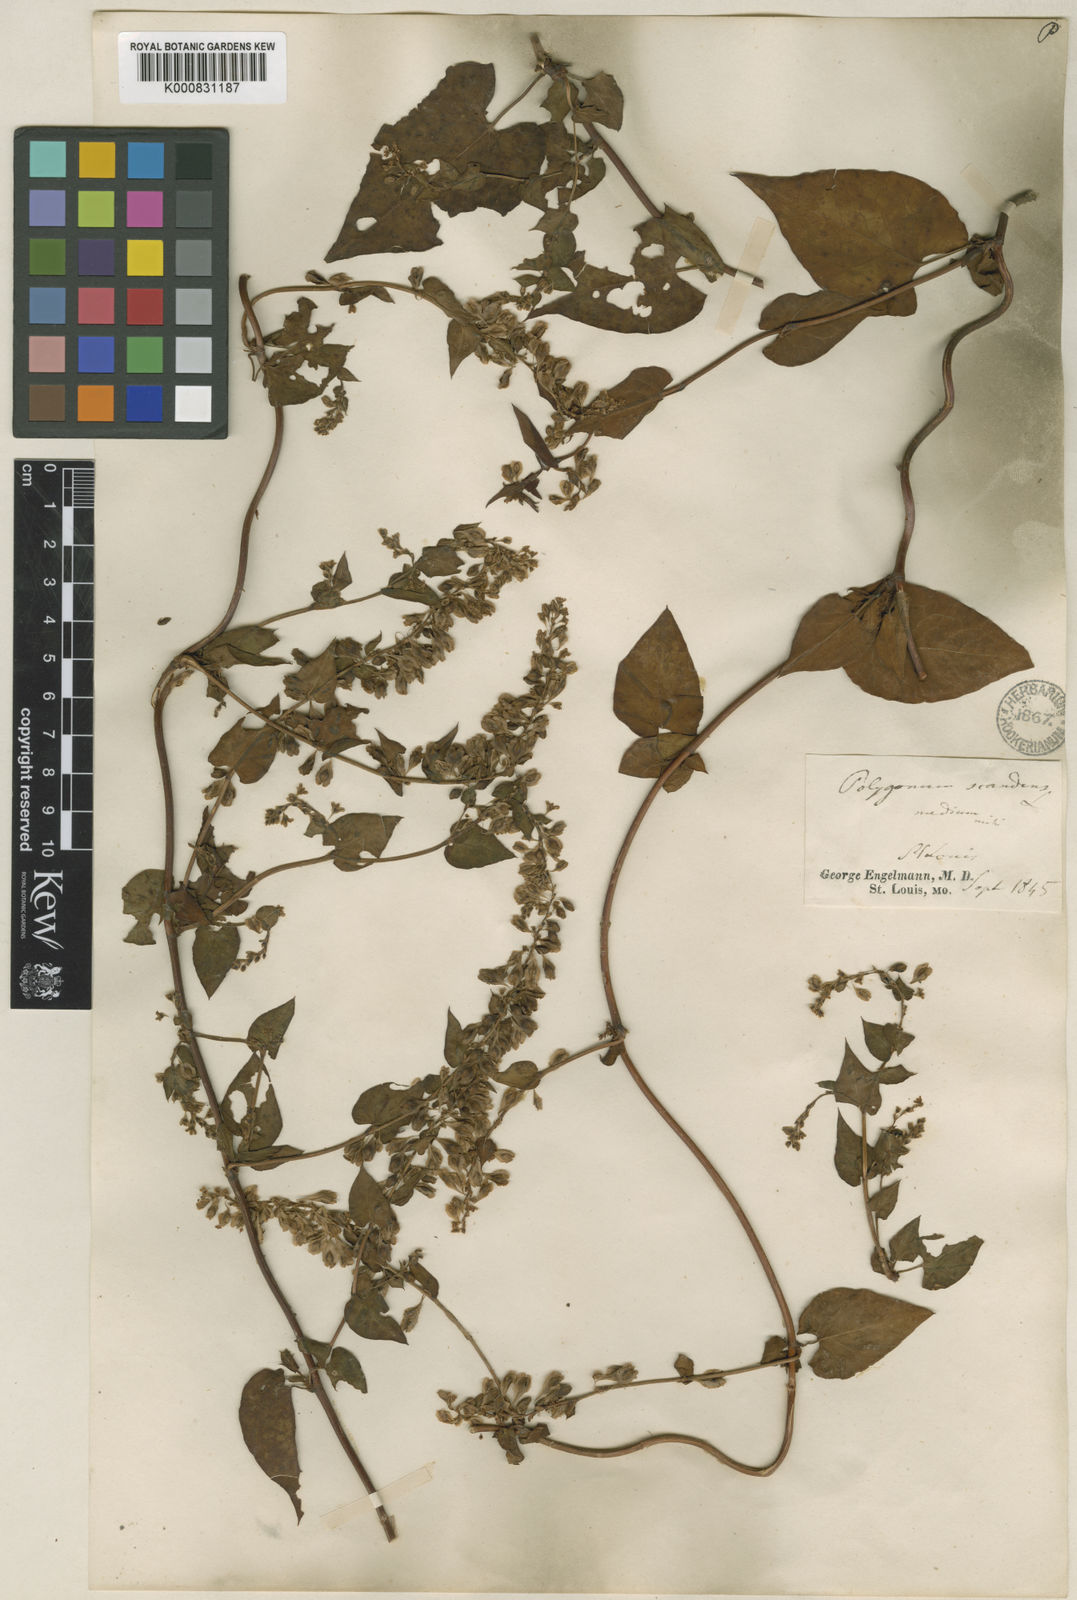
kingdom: Plantae
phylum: Tracheophyta
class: Magnoliopsida
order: Caryophyllales
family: Polygonaceae
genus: Fallopia
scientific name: Fallopia scandens
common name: Climbing false buckwheat
